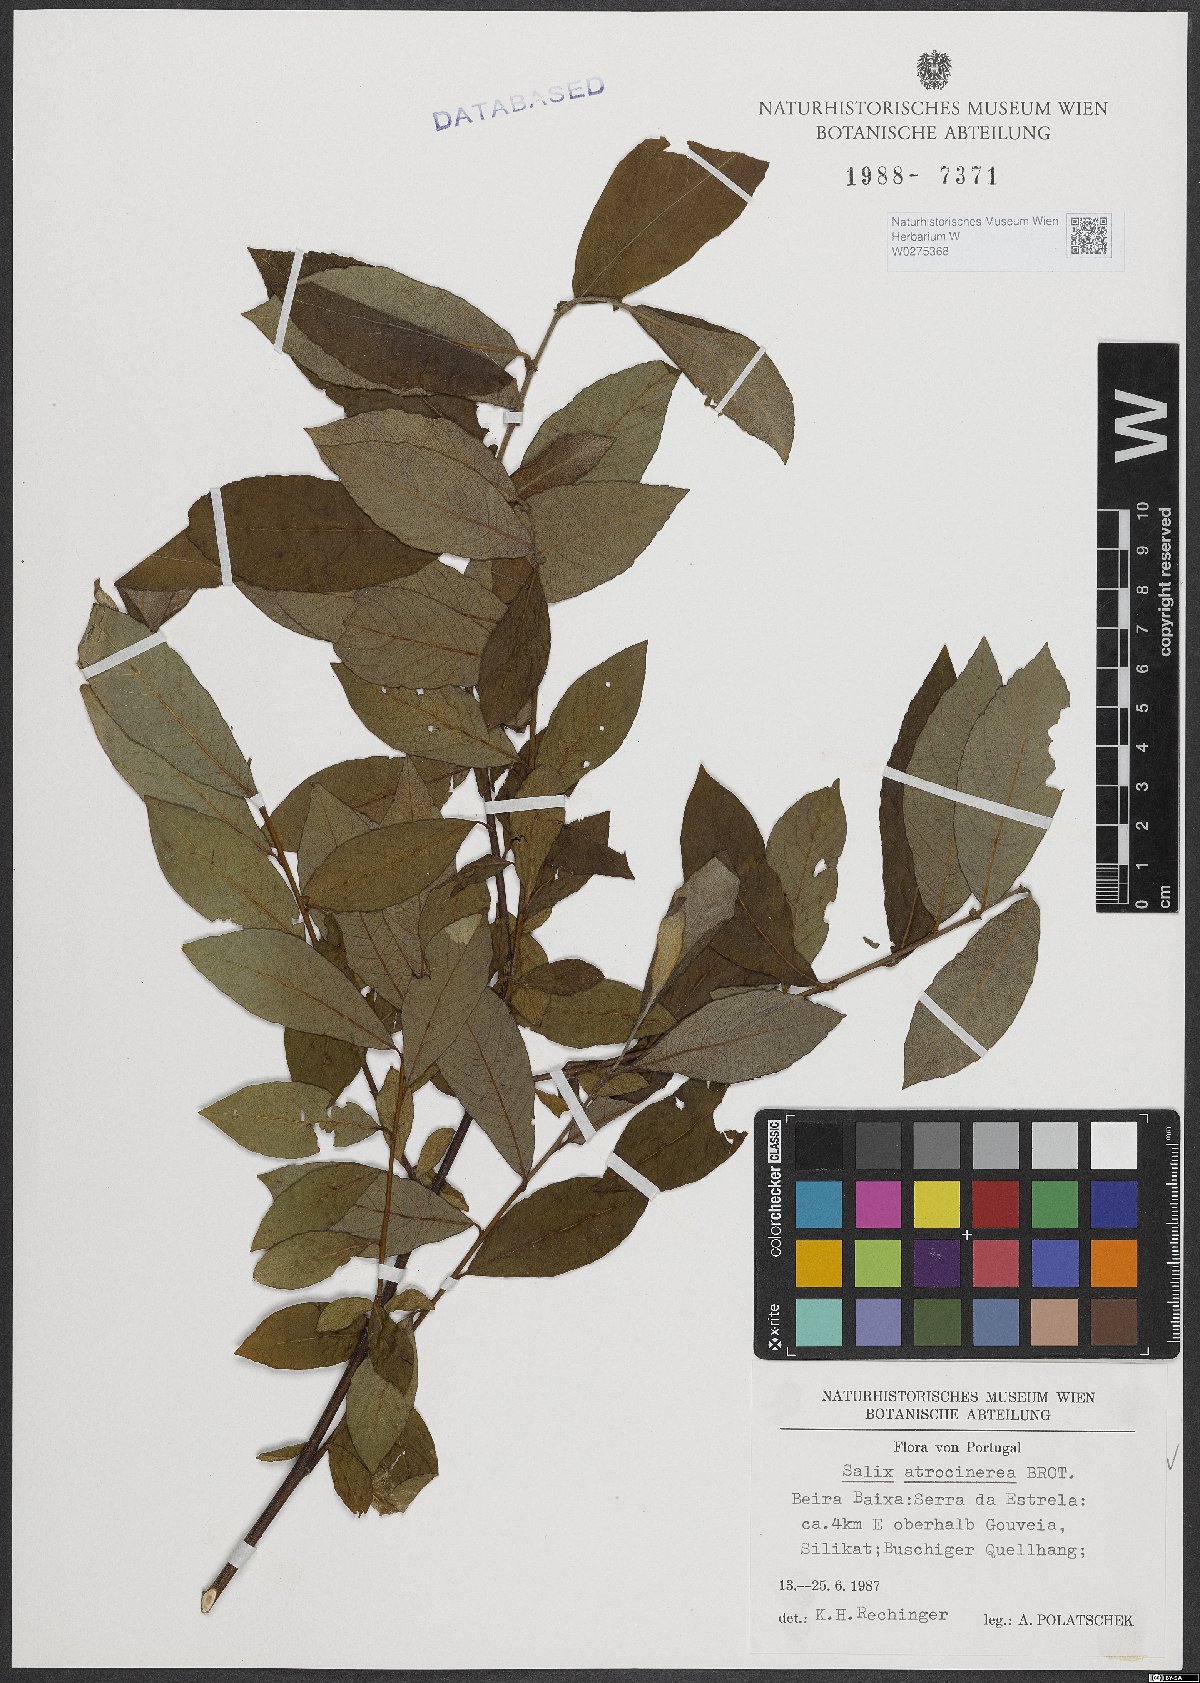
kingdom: Plantae
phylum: Tracheophyta
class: Magnoliopsida
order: Malpighiales
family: Salicaceae
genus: Salix
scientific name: Salix atrocinerea
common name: Rusty willow
